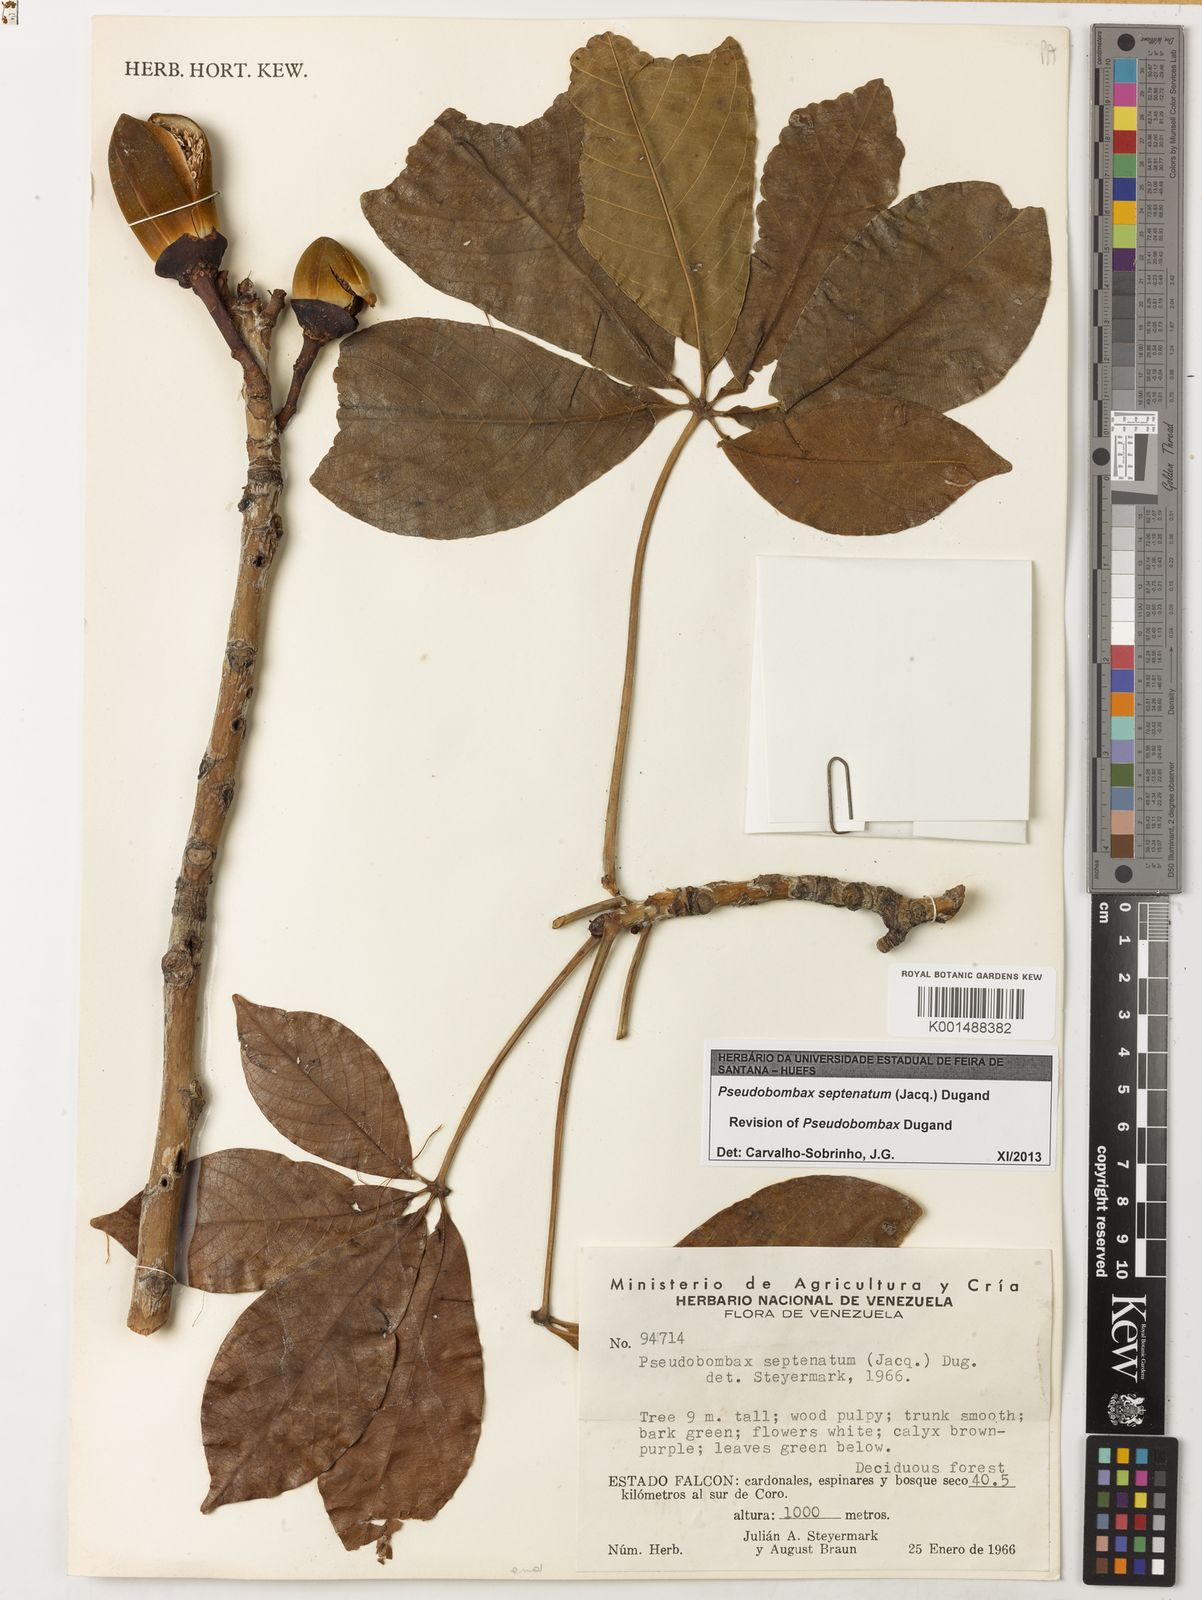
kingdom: Plantae
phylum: Tracheophyta
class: Magnoliopsida
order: Malvales
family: Malvaceae
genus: Pseudobombax
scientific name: Pseudobombax septenatum
